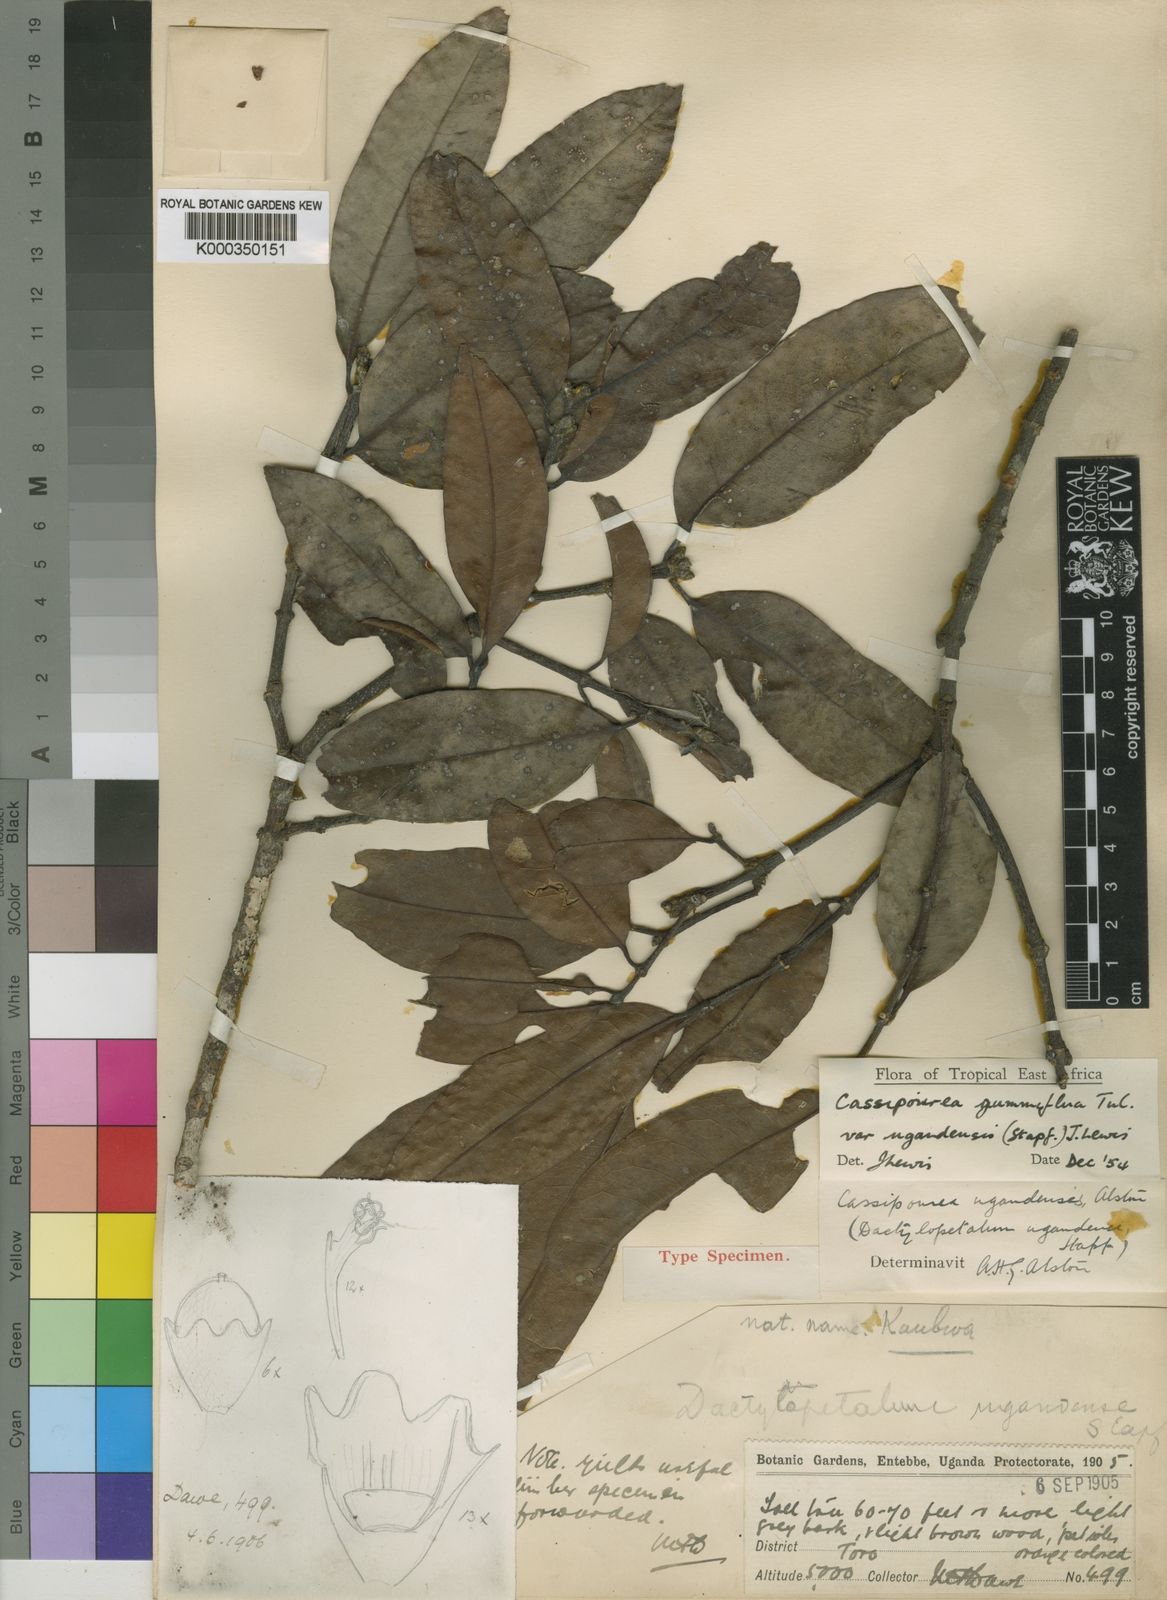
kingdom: Plantae
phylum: Tracheophyta
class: Magnoliopsida
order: Malpighiales
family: Rhizophoraceae
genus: Cassipourea
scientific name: Cassipourea gummiflua
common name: Large-leaved onionwood
